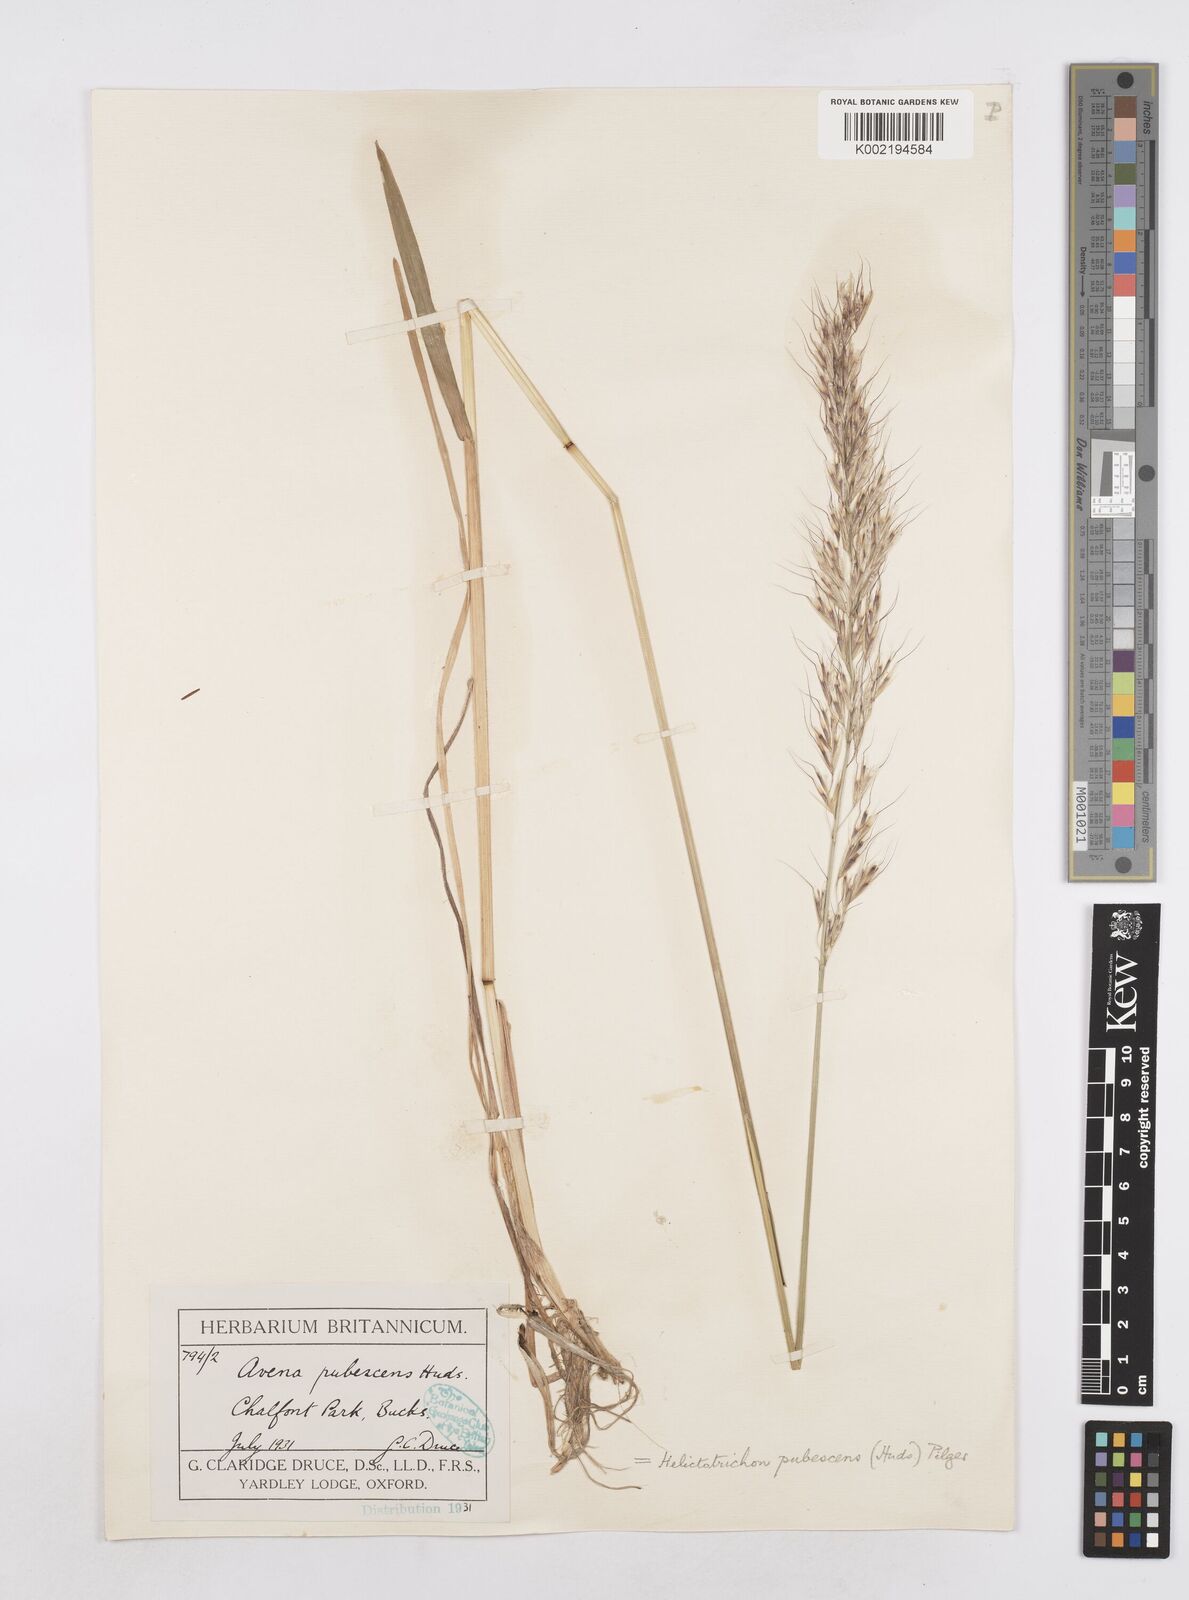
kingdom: Plantae
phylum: Tracheophyta
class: Liliopsida
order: Poales
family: Poaceae
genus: Avenula
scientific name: Avenula pubescens
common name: Downy alpine oatgrass
